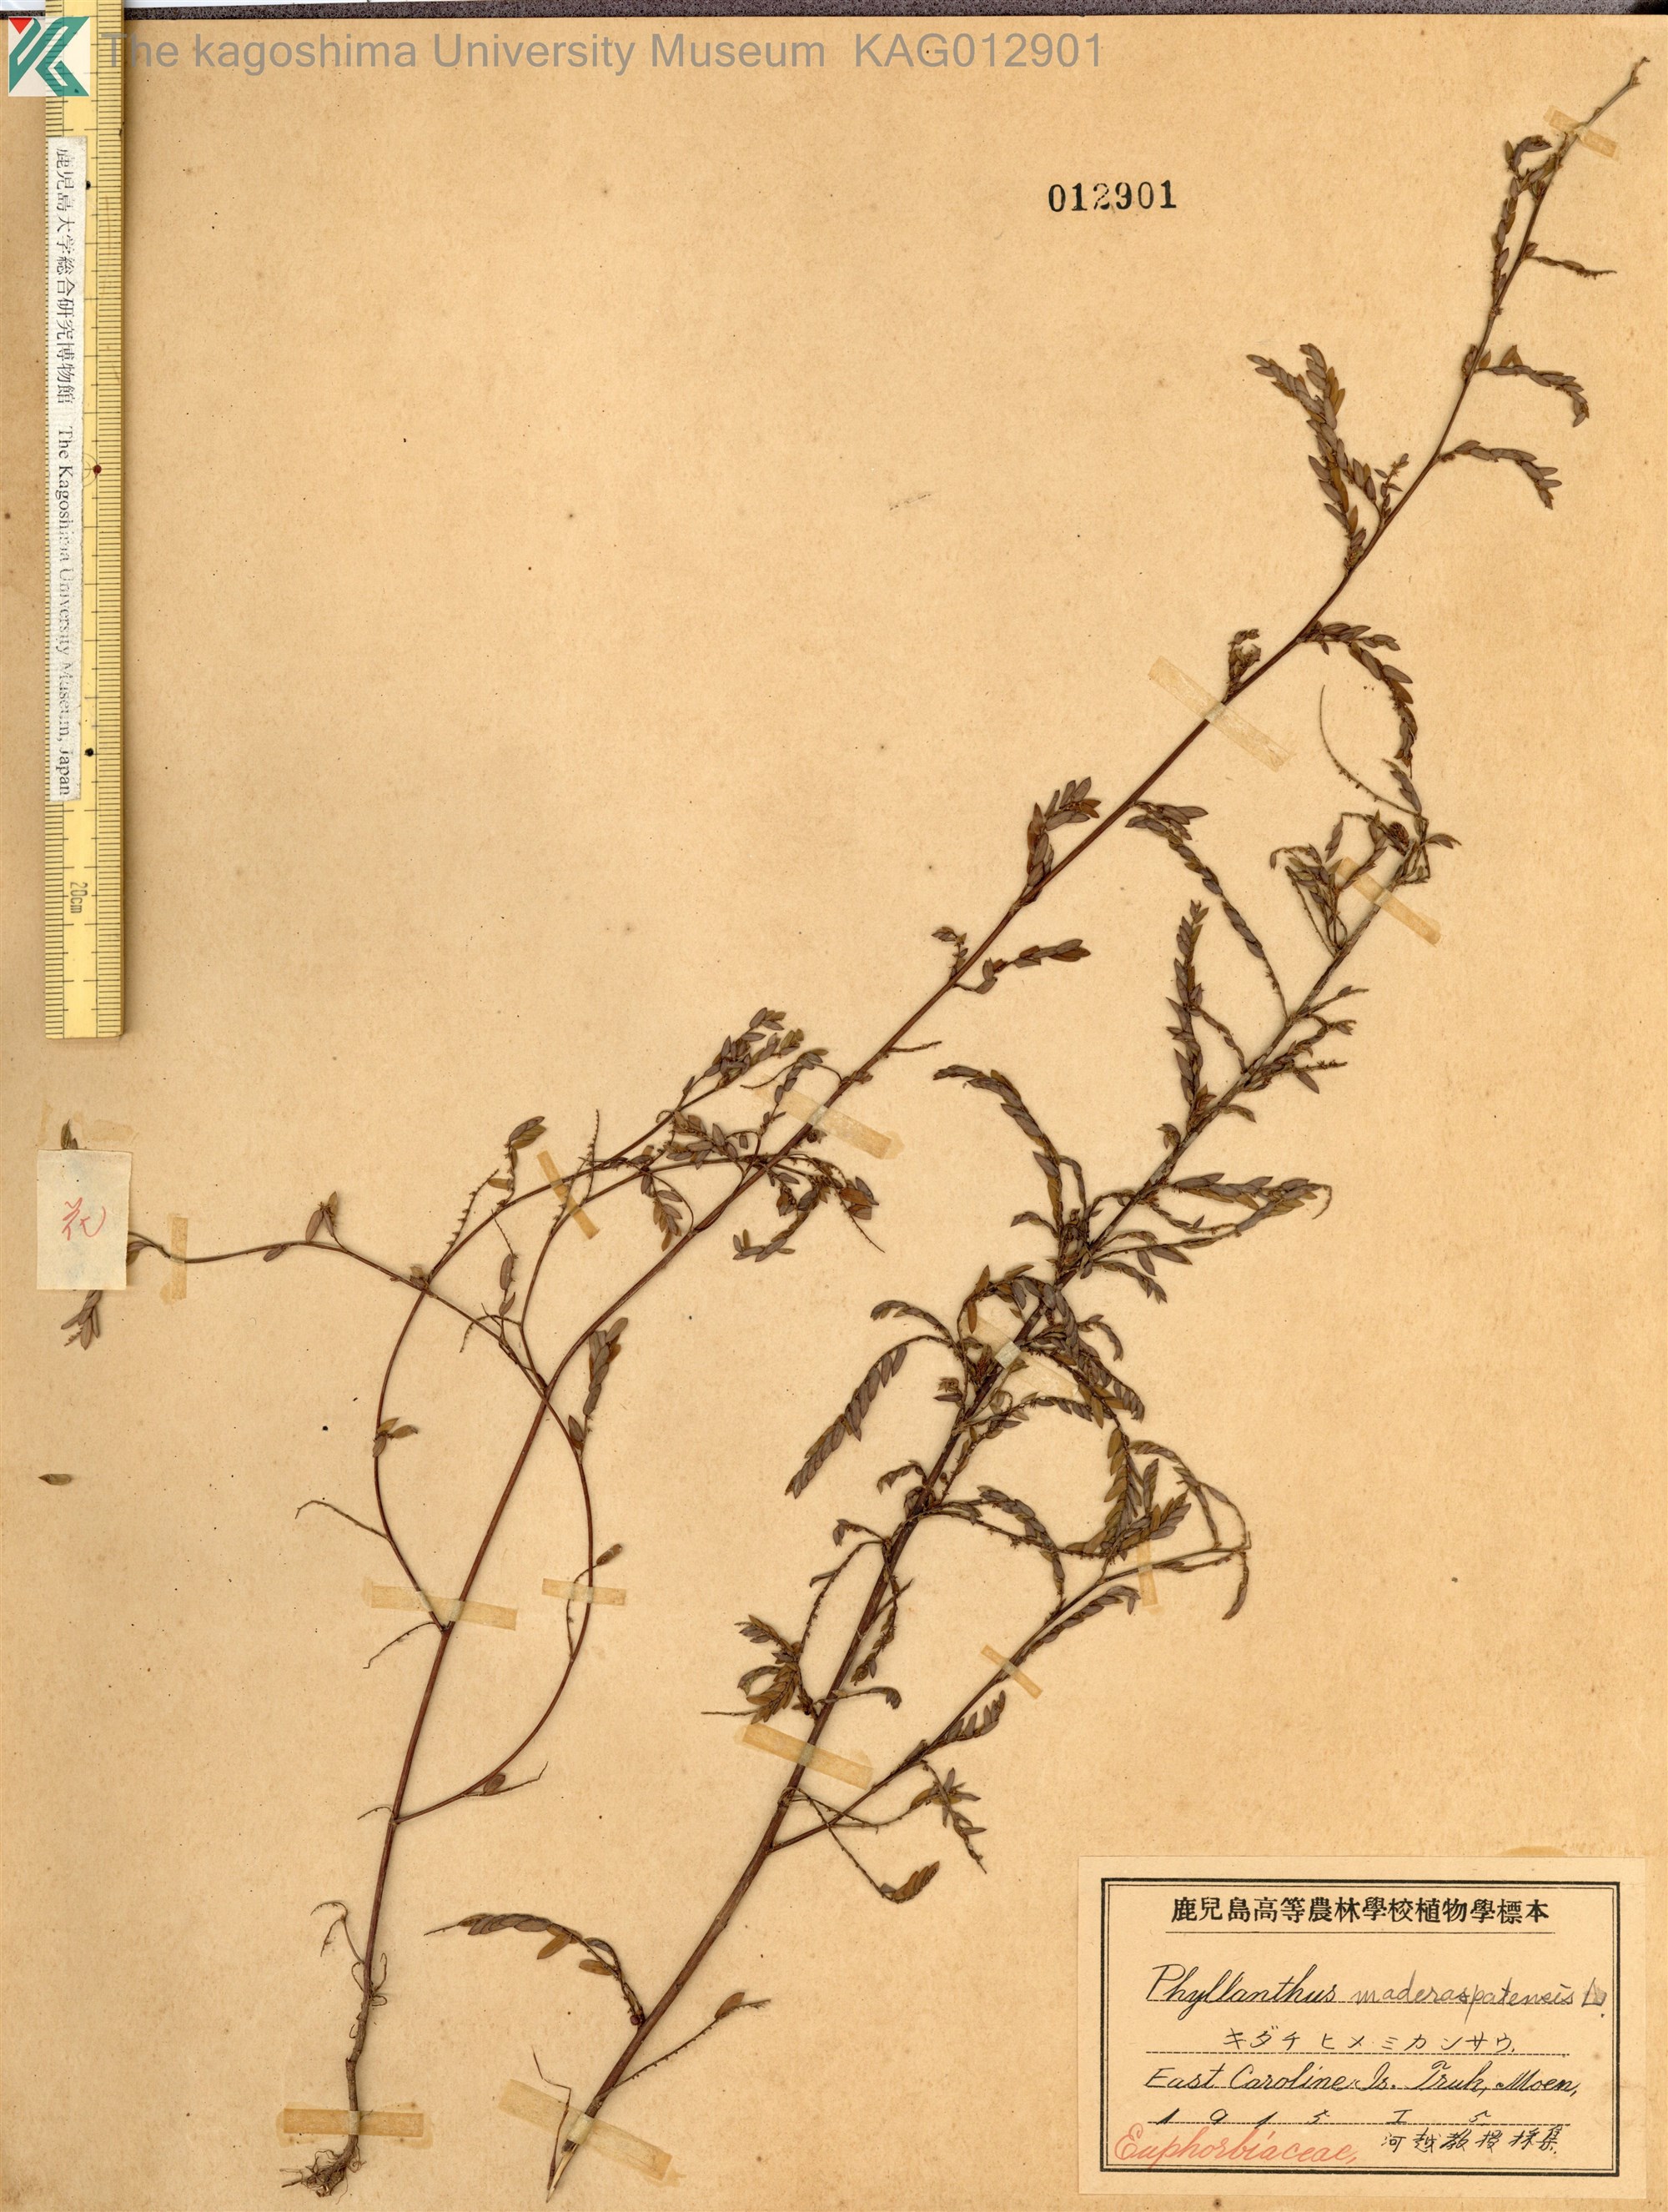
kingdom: Plantae
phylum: Tracheophyta
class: Magnoliopsida
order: Malpighiales
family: Phyllanthaceae
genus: Phyllanthus
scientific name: Phyllanthus maderaspatensis
